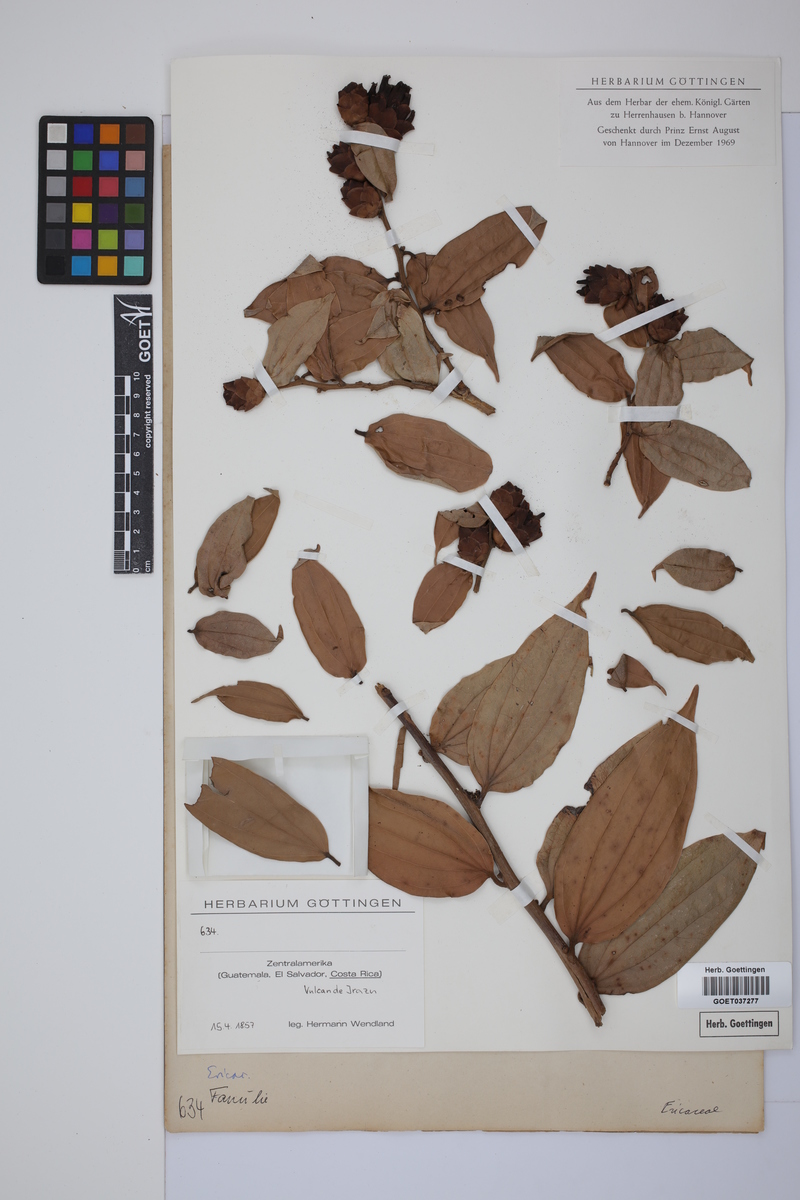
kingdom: Plantae
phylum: Tracheophyta
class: Magnoliopsida
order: Ericales
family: Ericaceae
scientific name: Ericaceae
